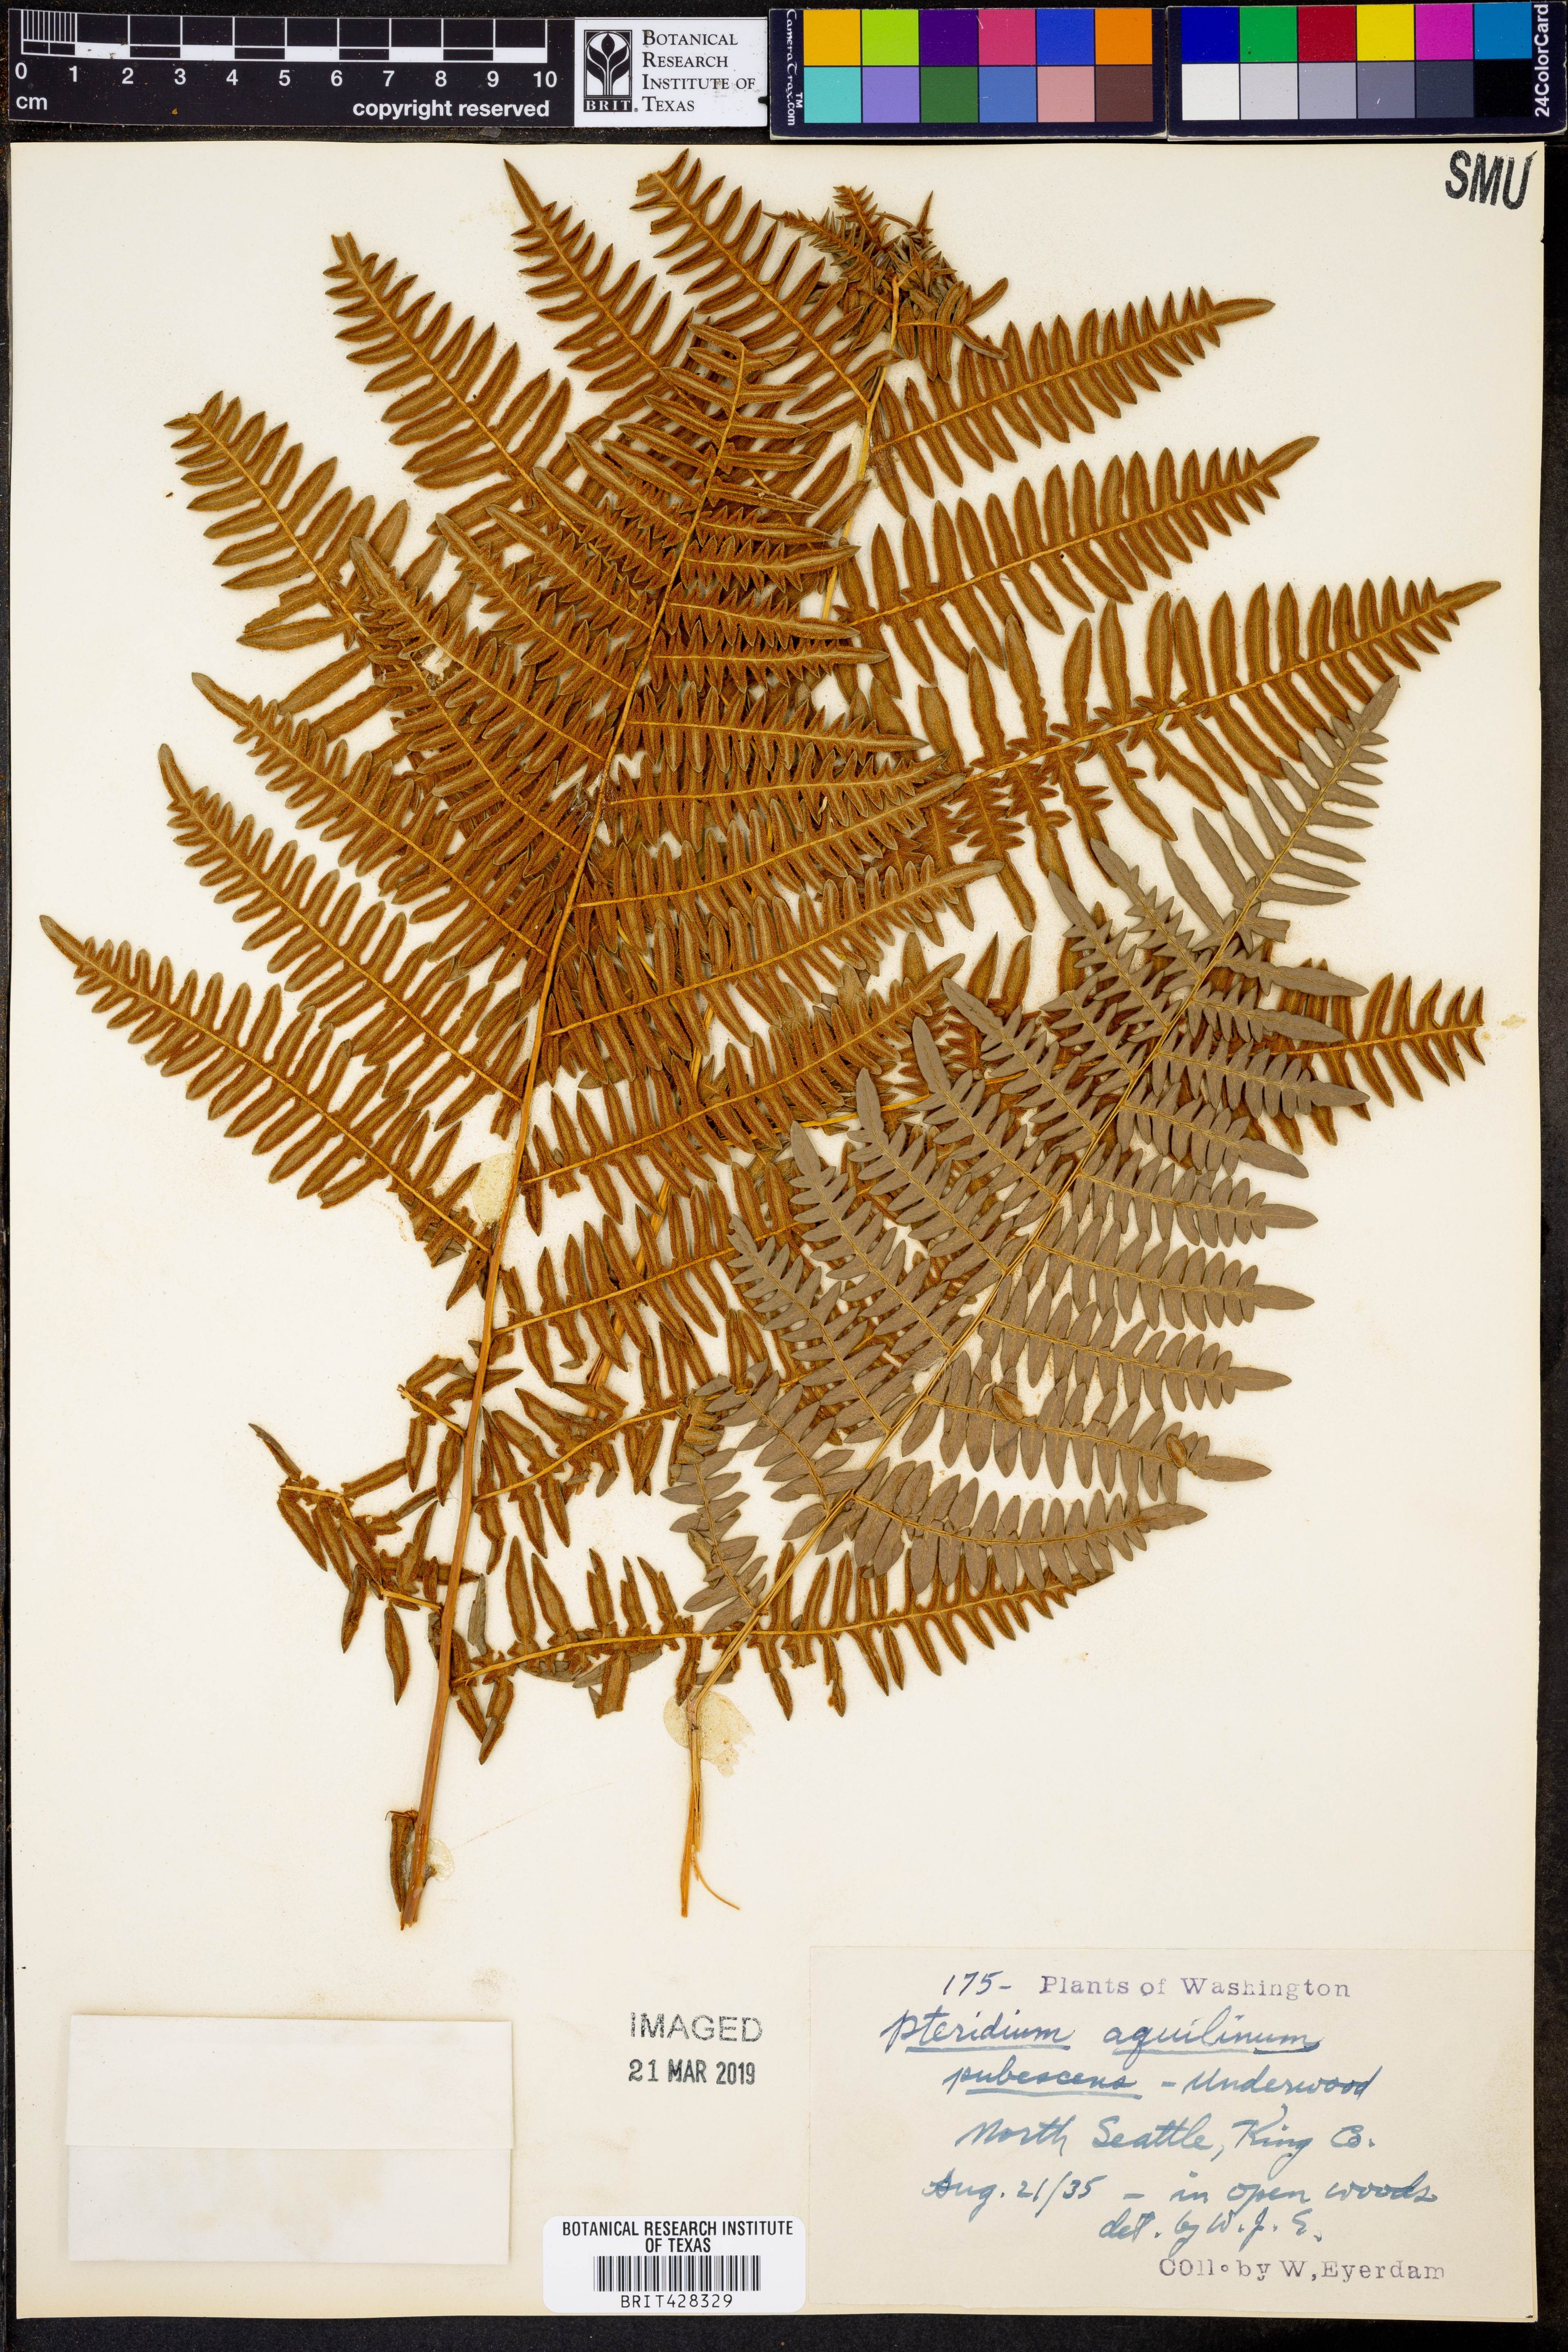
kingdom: Plantae
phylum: Tracheophyta
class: Polypodiopsida
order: Polypodiales
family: Dennstaedtiaceae
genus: Pteridium
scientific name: Pteridium aquilinum
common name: Bracken
